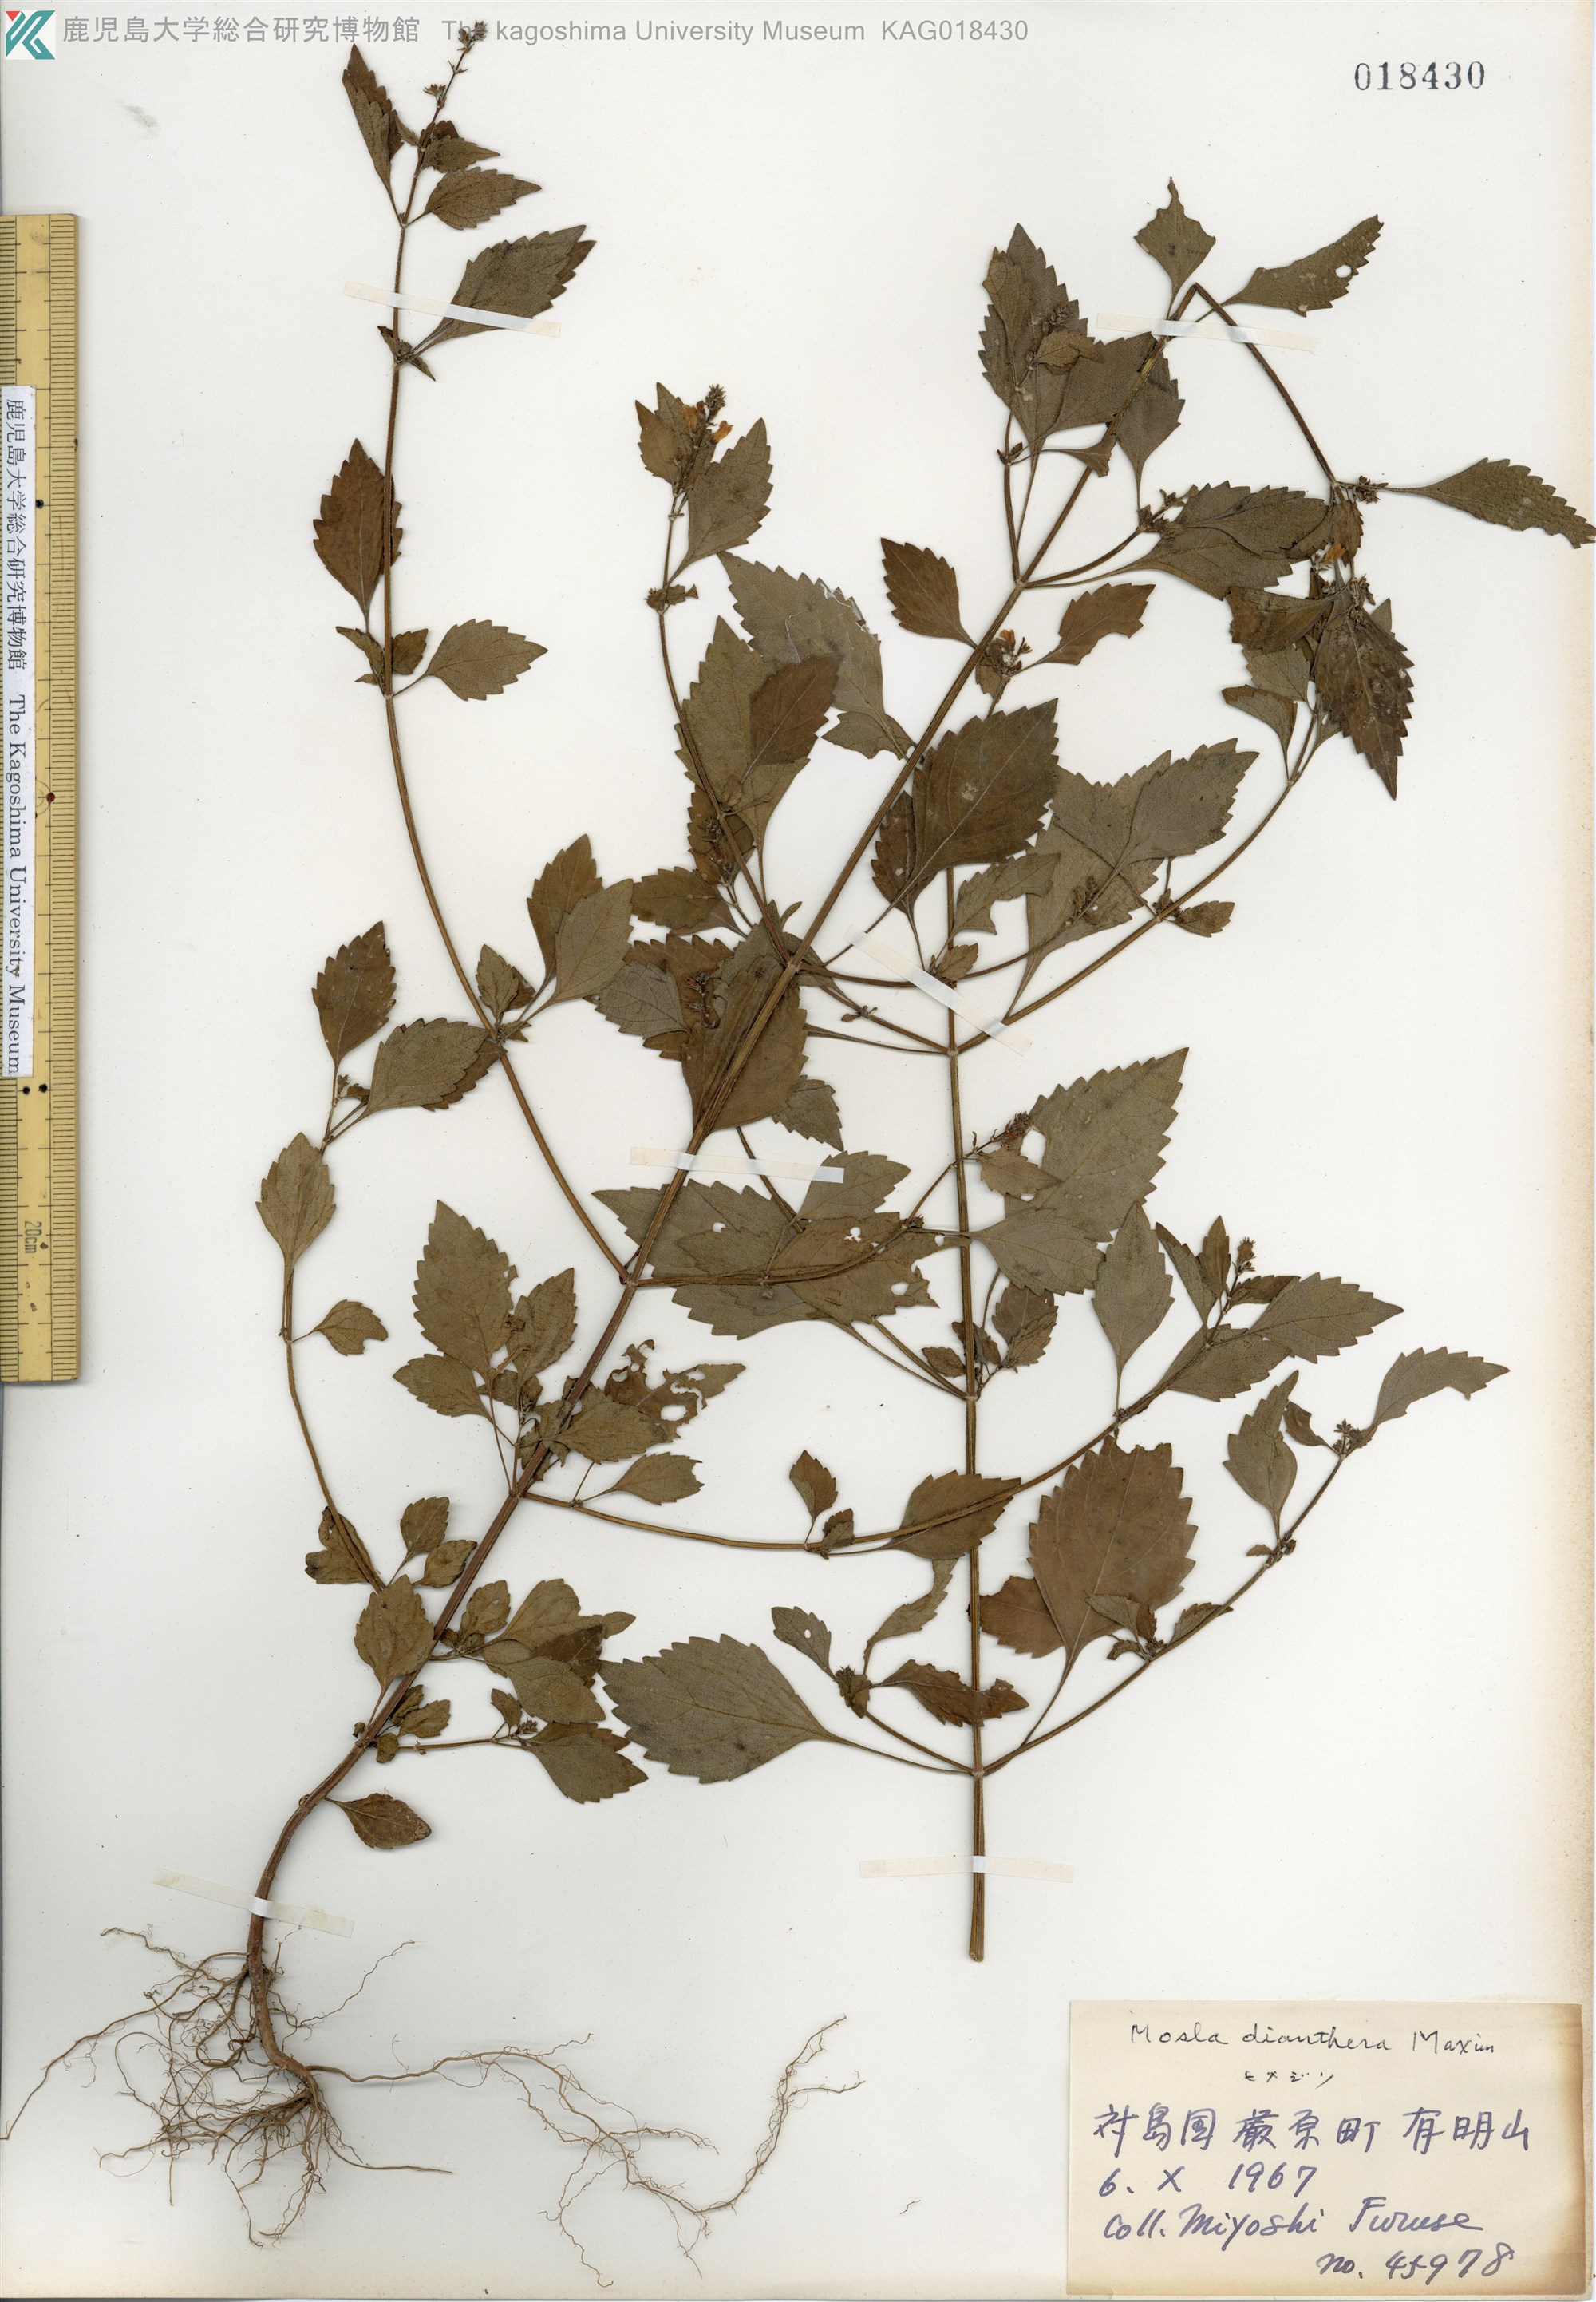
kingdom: Plantae
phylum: Tracheophyta
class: Magnoliopsida
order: Lamiales
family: Lamiaceae
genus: Mosla
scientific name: Mosla dianthera
